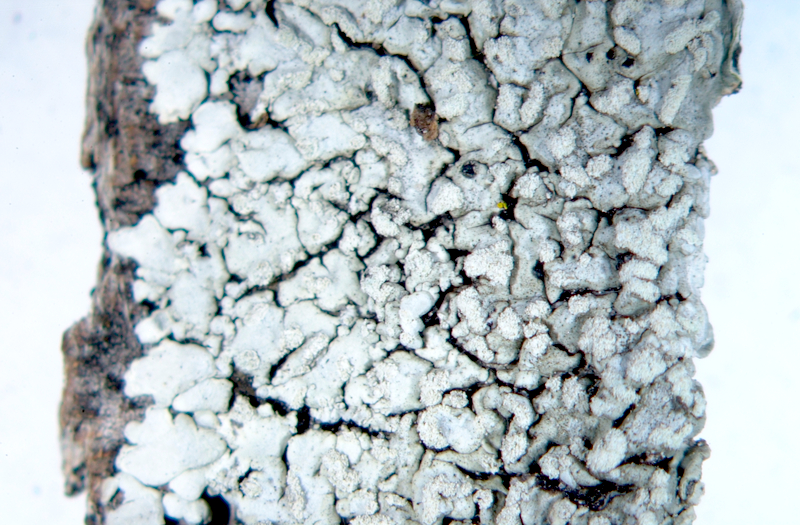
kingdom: Fungi
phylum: Ascomycota
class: Lecanoromycetes
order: Caliciales
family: Caliciaceae
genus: Pyxine
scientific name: Pyxine nubila
